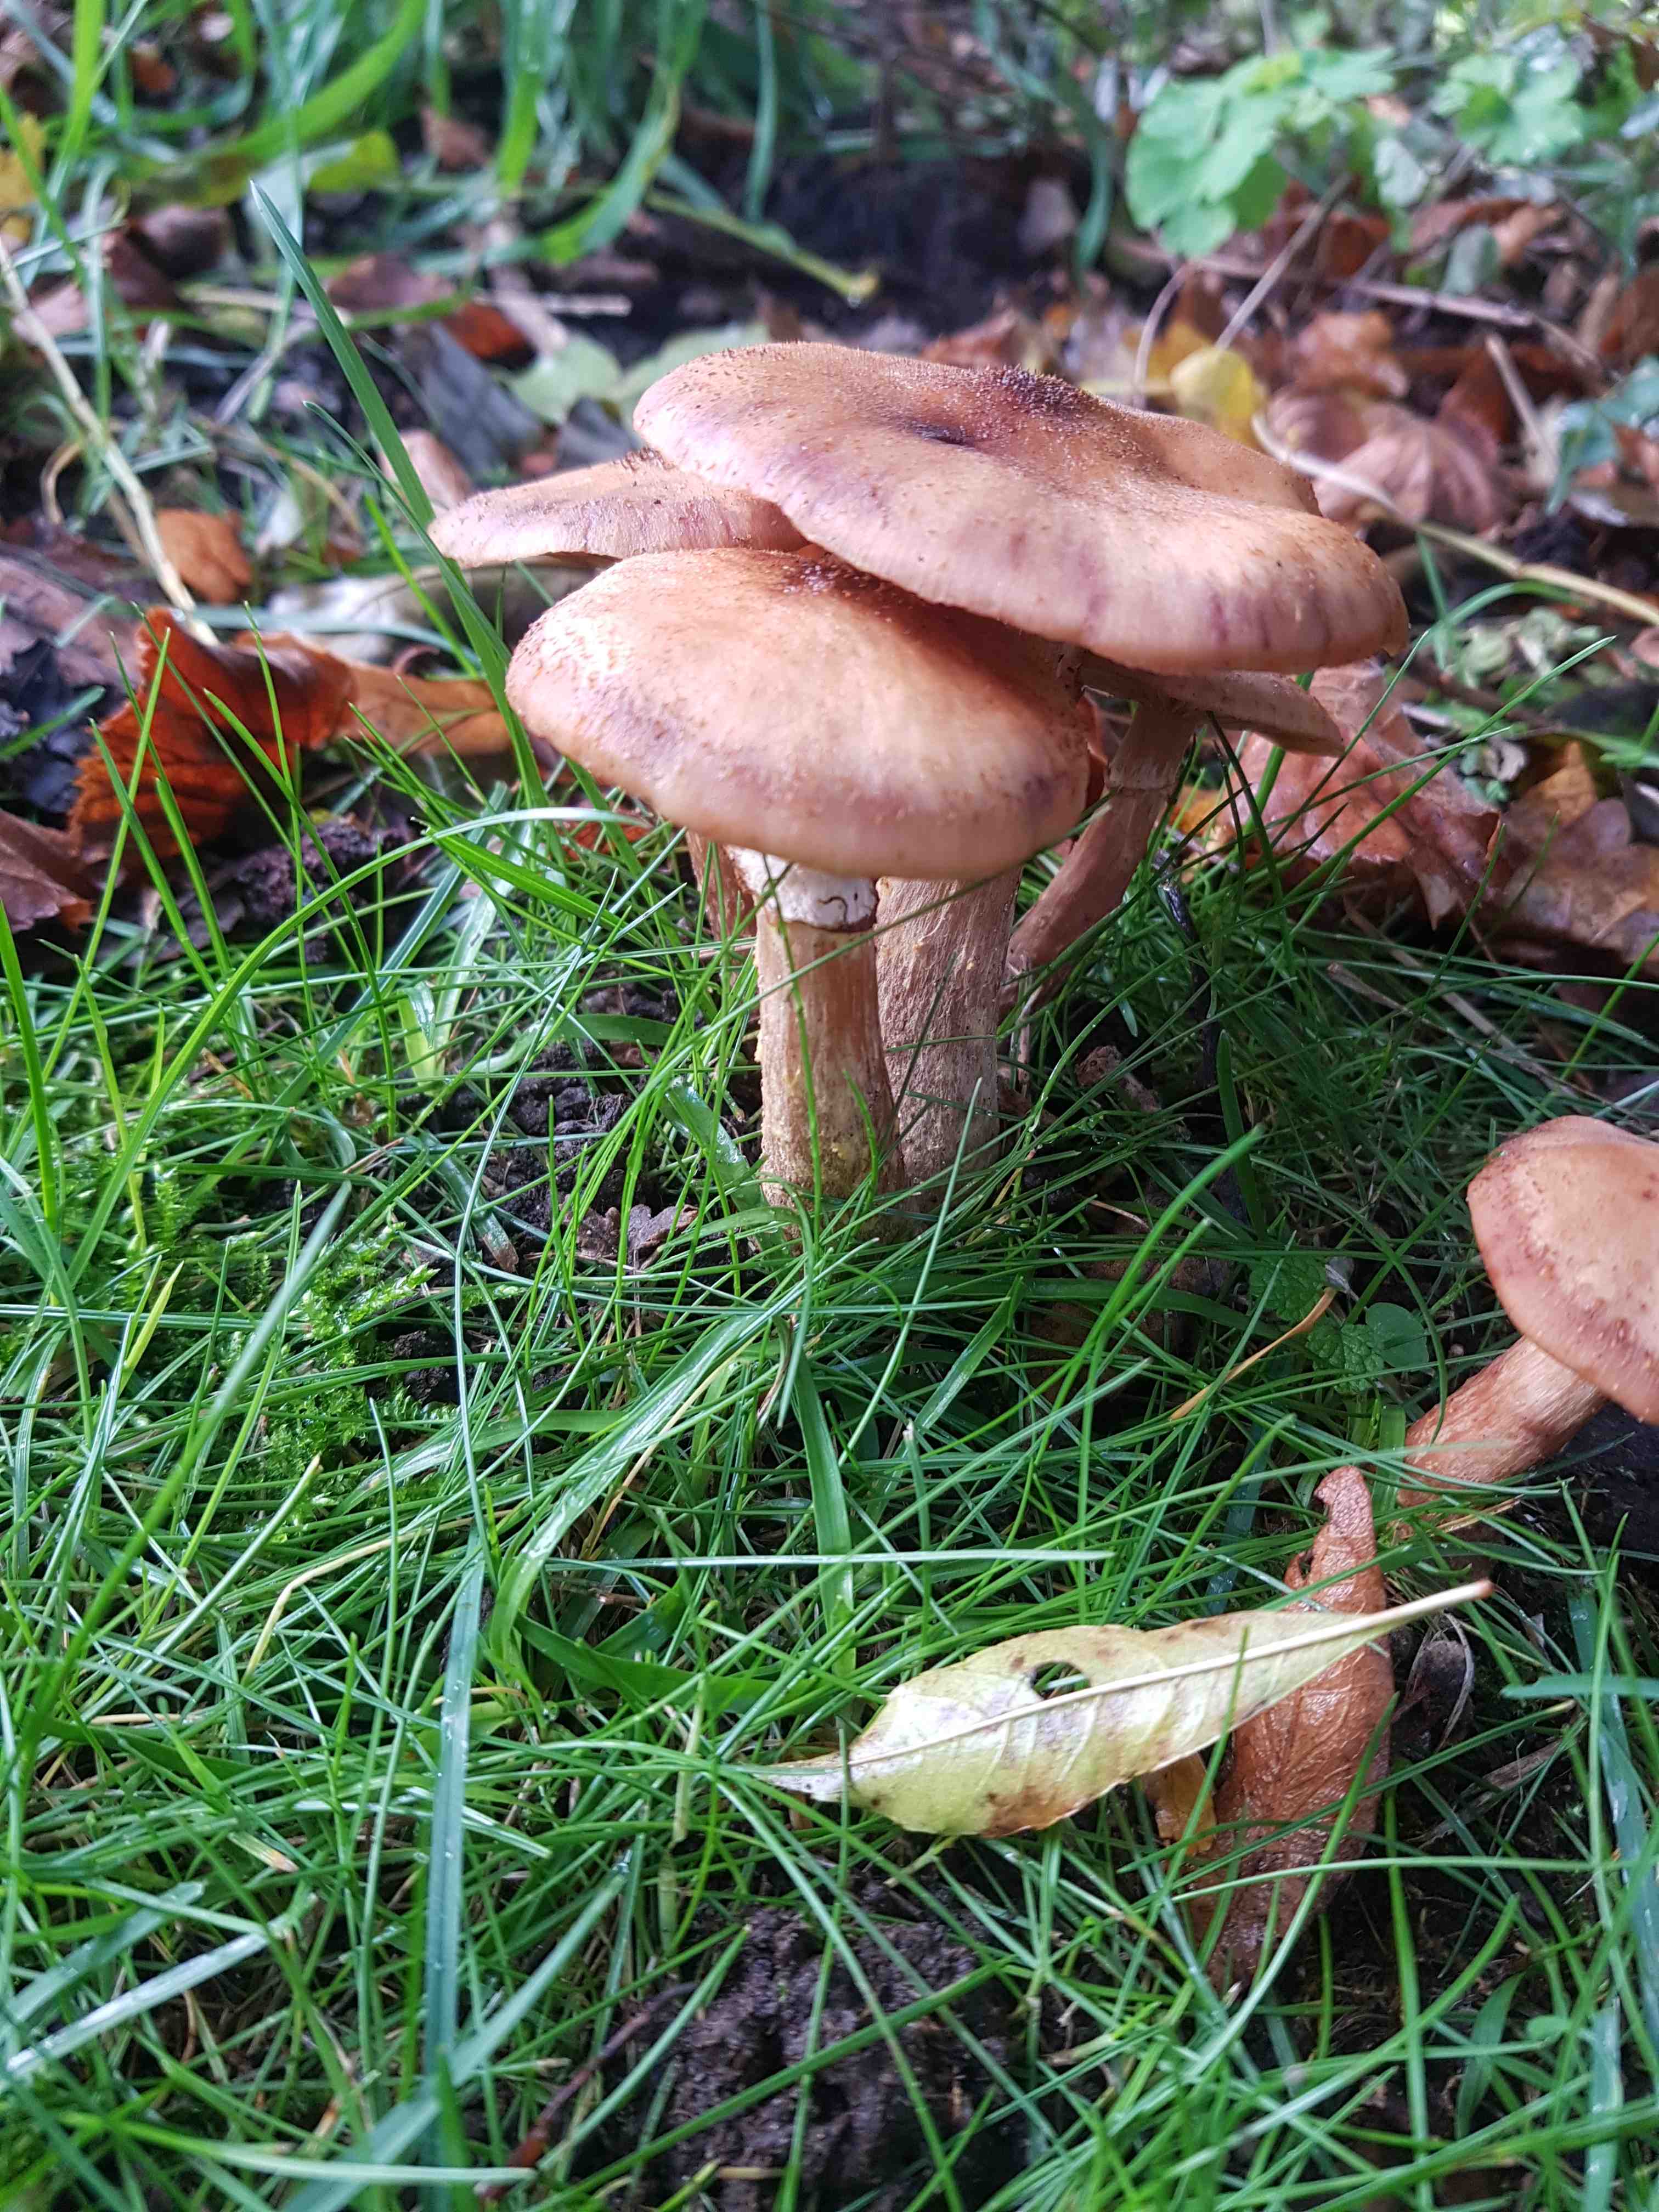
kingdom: Fungi
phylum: Basidiomycota
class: Agaricomycetes
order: Agaricales
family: Physalacriaceae
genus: Armillaria
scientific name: Armillaria lutea
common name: køllestokket honningsvamp
